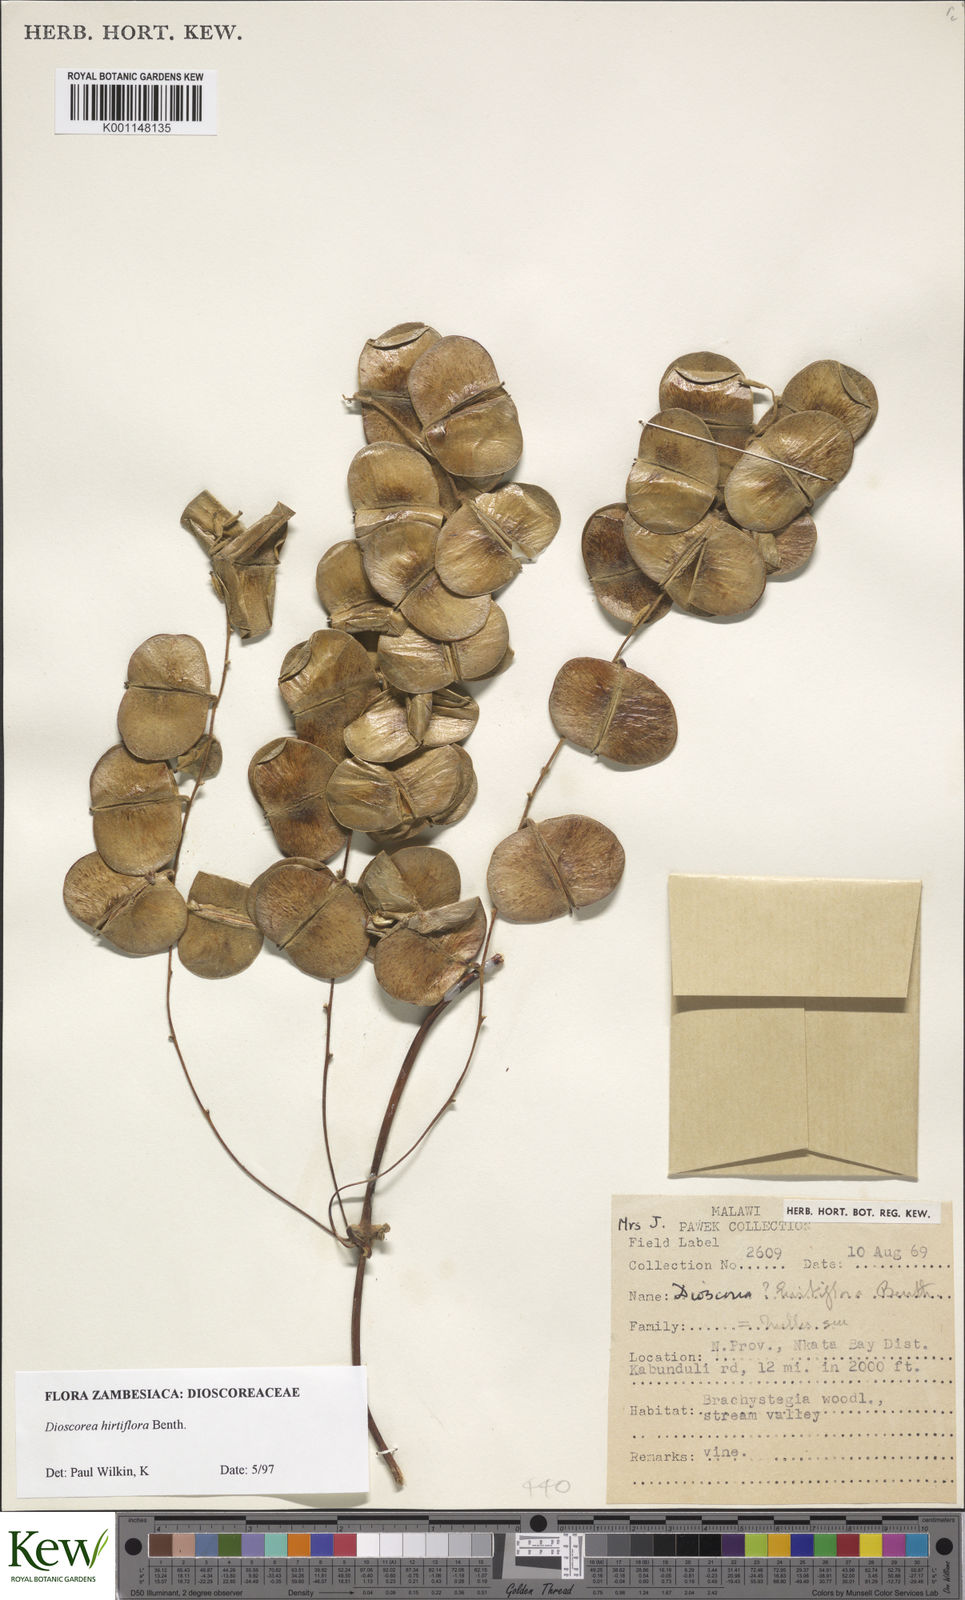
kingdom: Plantae
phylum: Tracheophyta
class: Liliopsida
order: Dioscoreales
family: Dioscoreaceae
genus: Dioscorea
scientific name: Dioscorea hirtiflora
